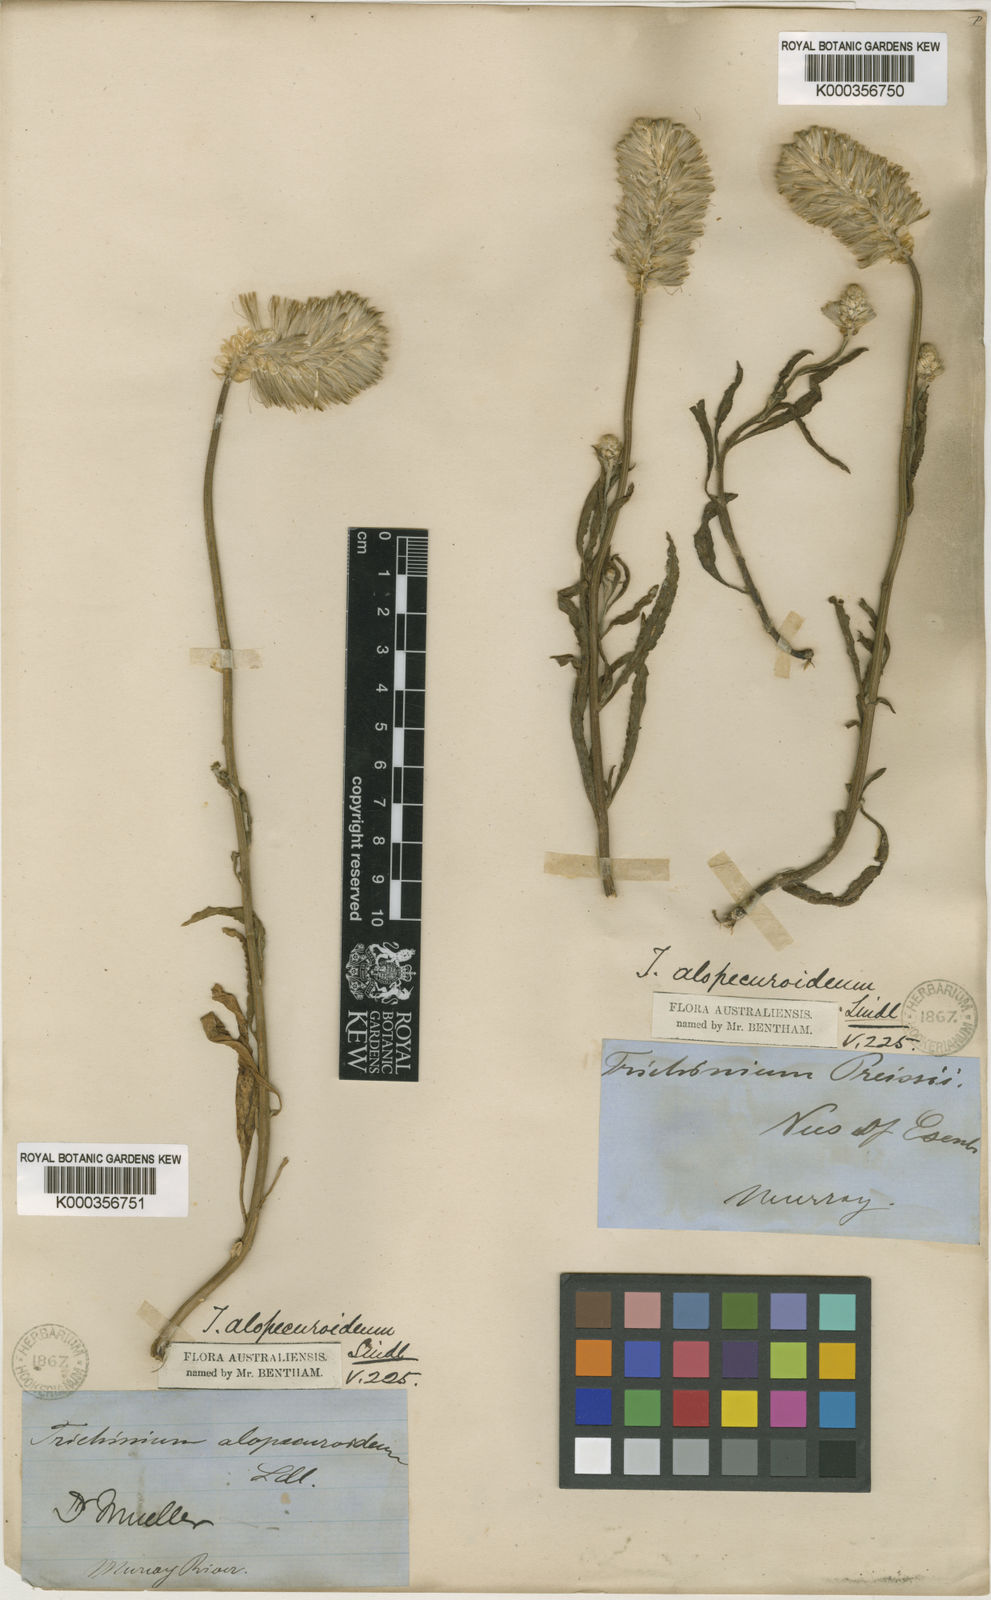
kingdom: Plantae
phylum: Tracheophyta
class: Magnoliopsida
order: Caryophyllales
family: Amaranthaceae
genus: Ptilotus
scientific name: Ptilotus polystachyus
